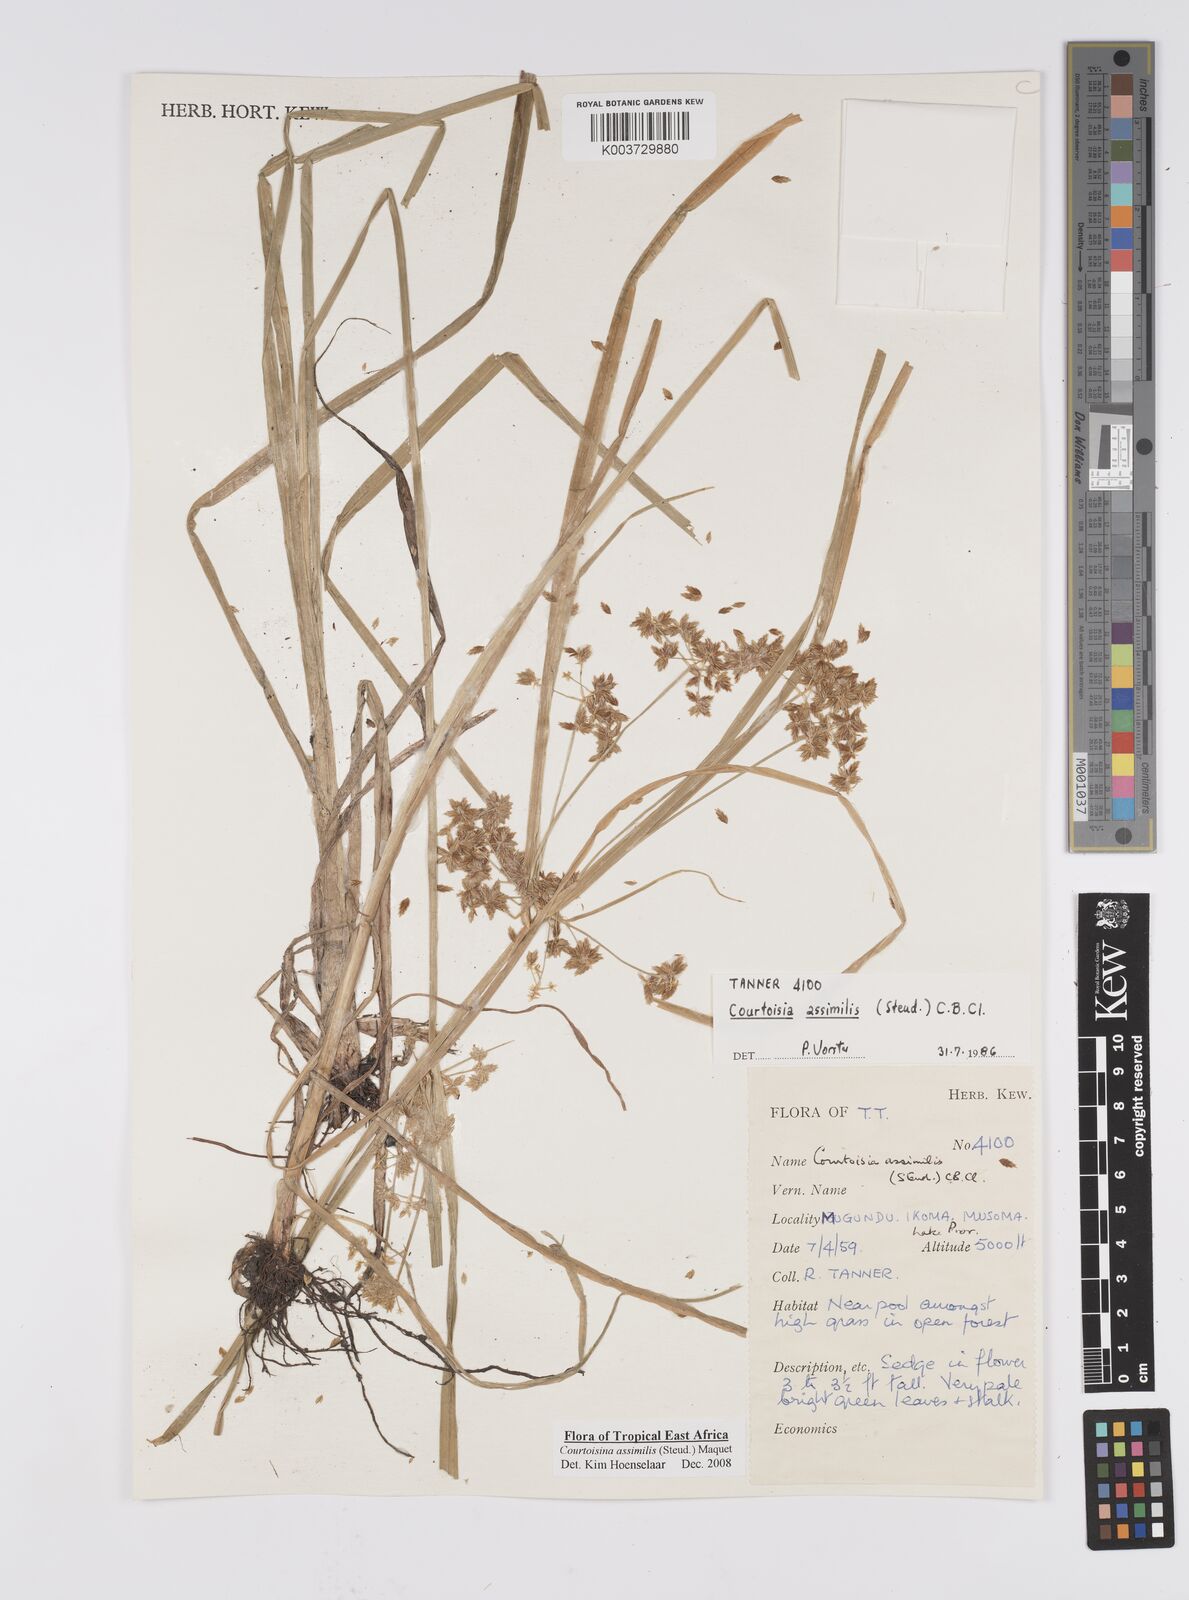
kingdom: Plantae
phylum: Tracheophyta
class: Liliopsida
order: Poales
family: Cyperaceae
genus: Cyperus
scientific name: Cyperus assimilis
